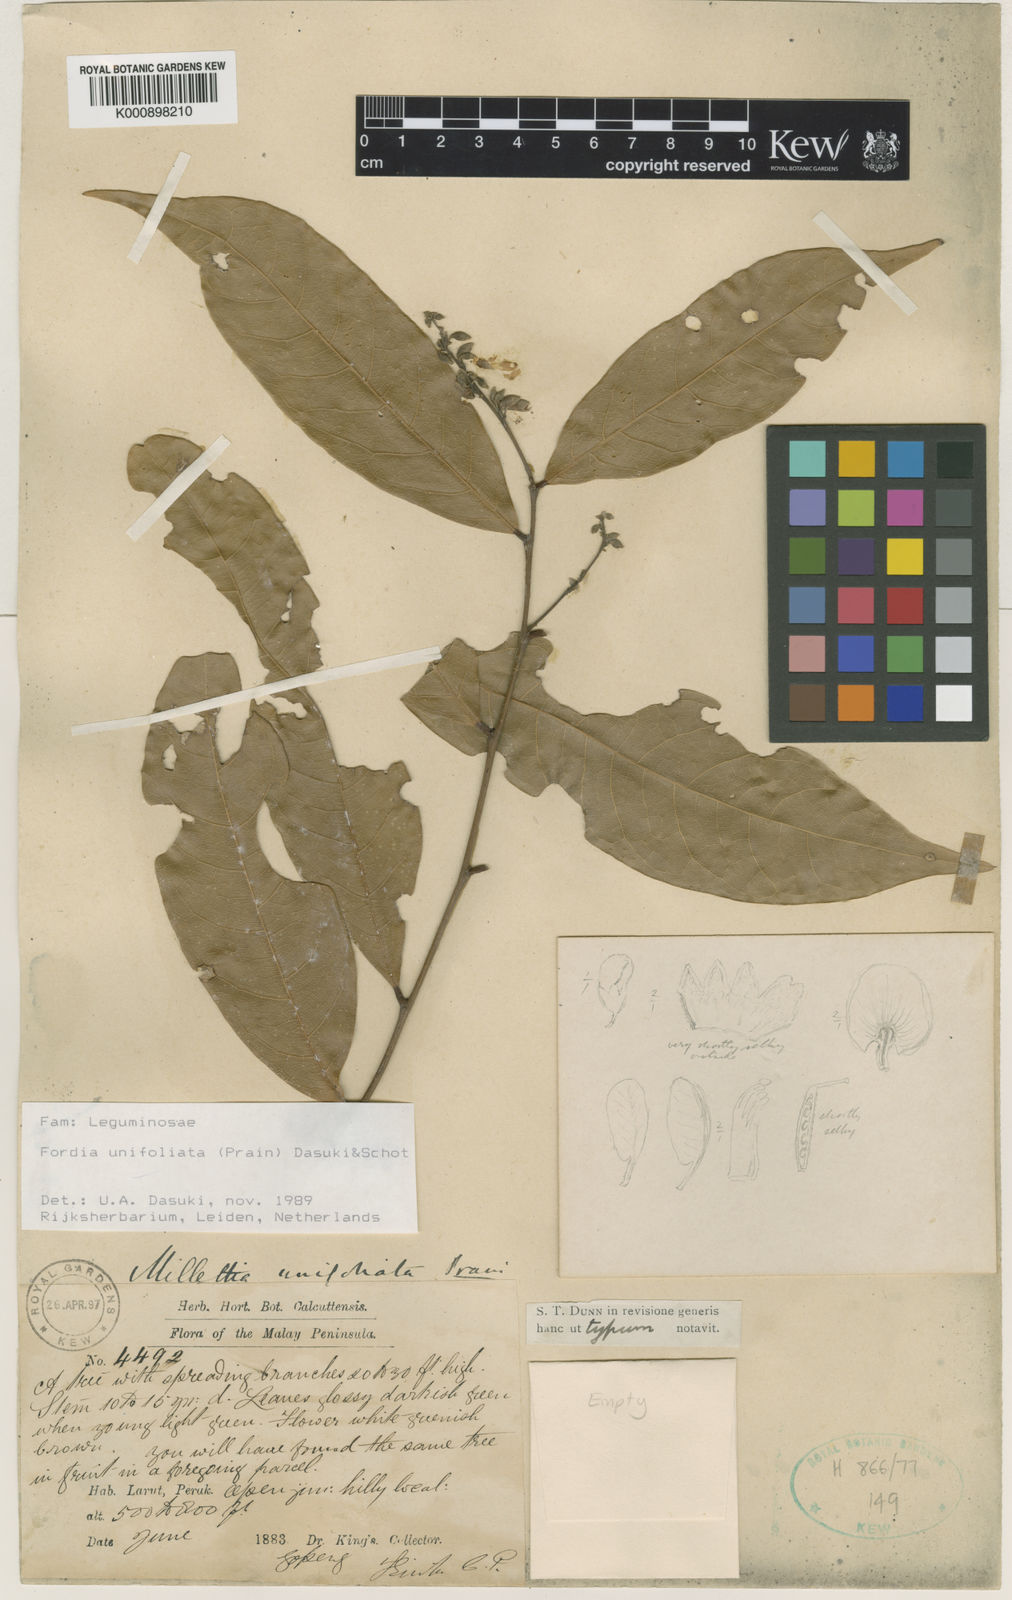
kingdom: Plantae
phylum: Tracheophyta
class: Magnoliopsida
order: Fabales
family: Fabaceae
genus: Imbralyx
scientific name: Imbralyx unifoliatus
